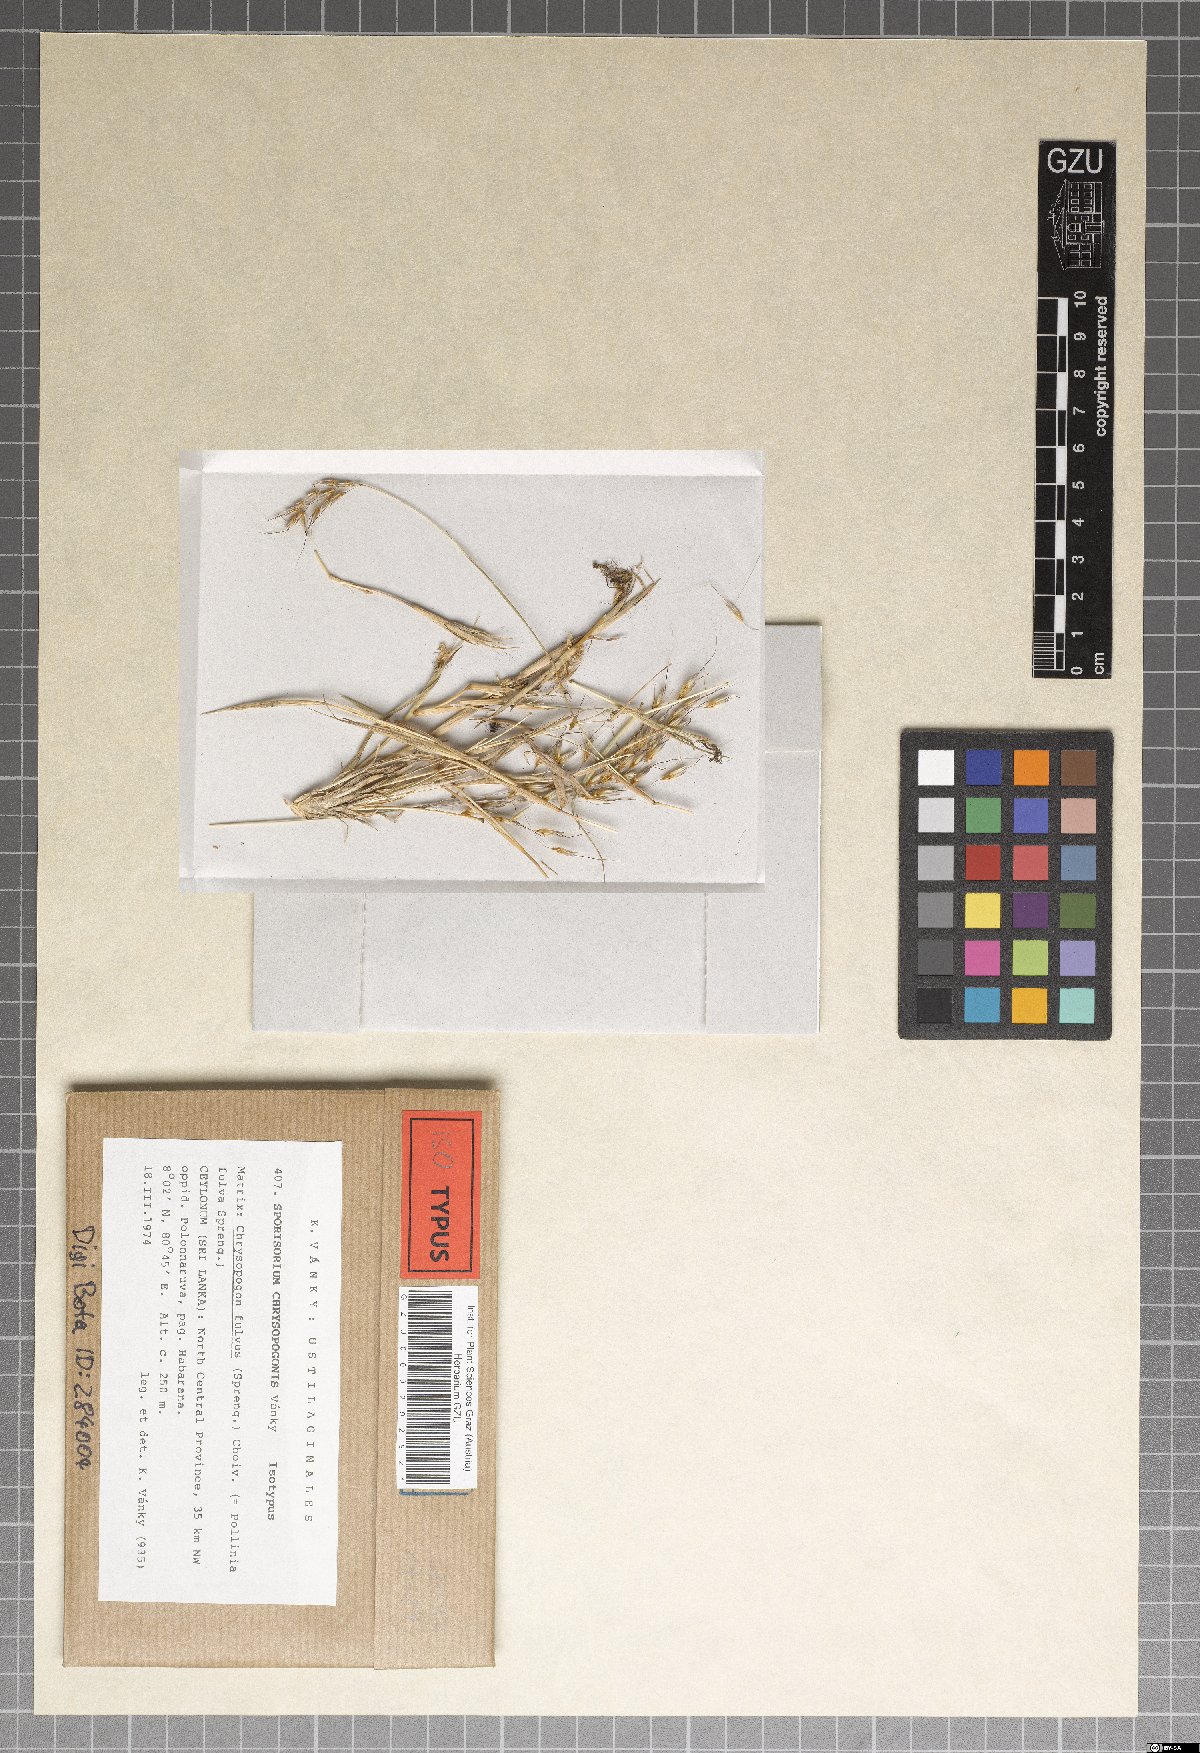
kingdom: Fungi
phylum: Basidiomycota
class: Ustilaginomycetes
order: Ustilaginales
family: Ustilaginaceae
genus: Anthracocystis
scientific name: Anthracocystis chrysopogonis
